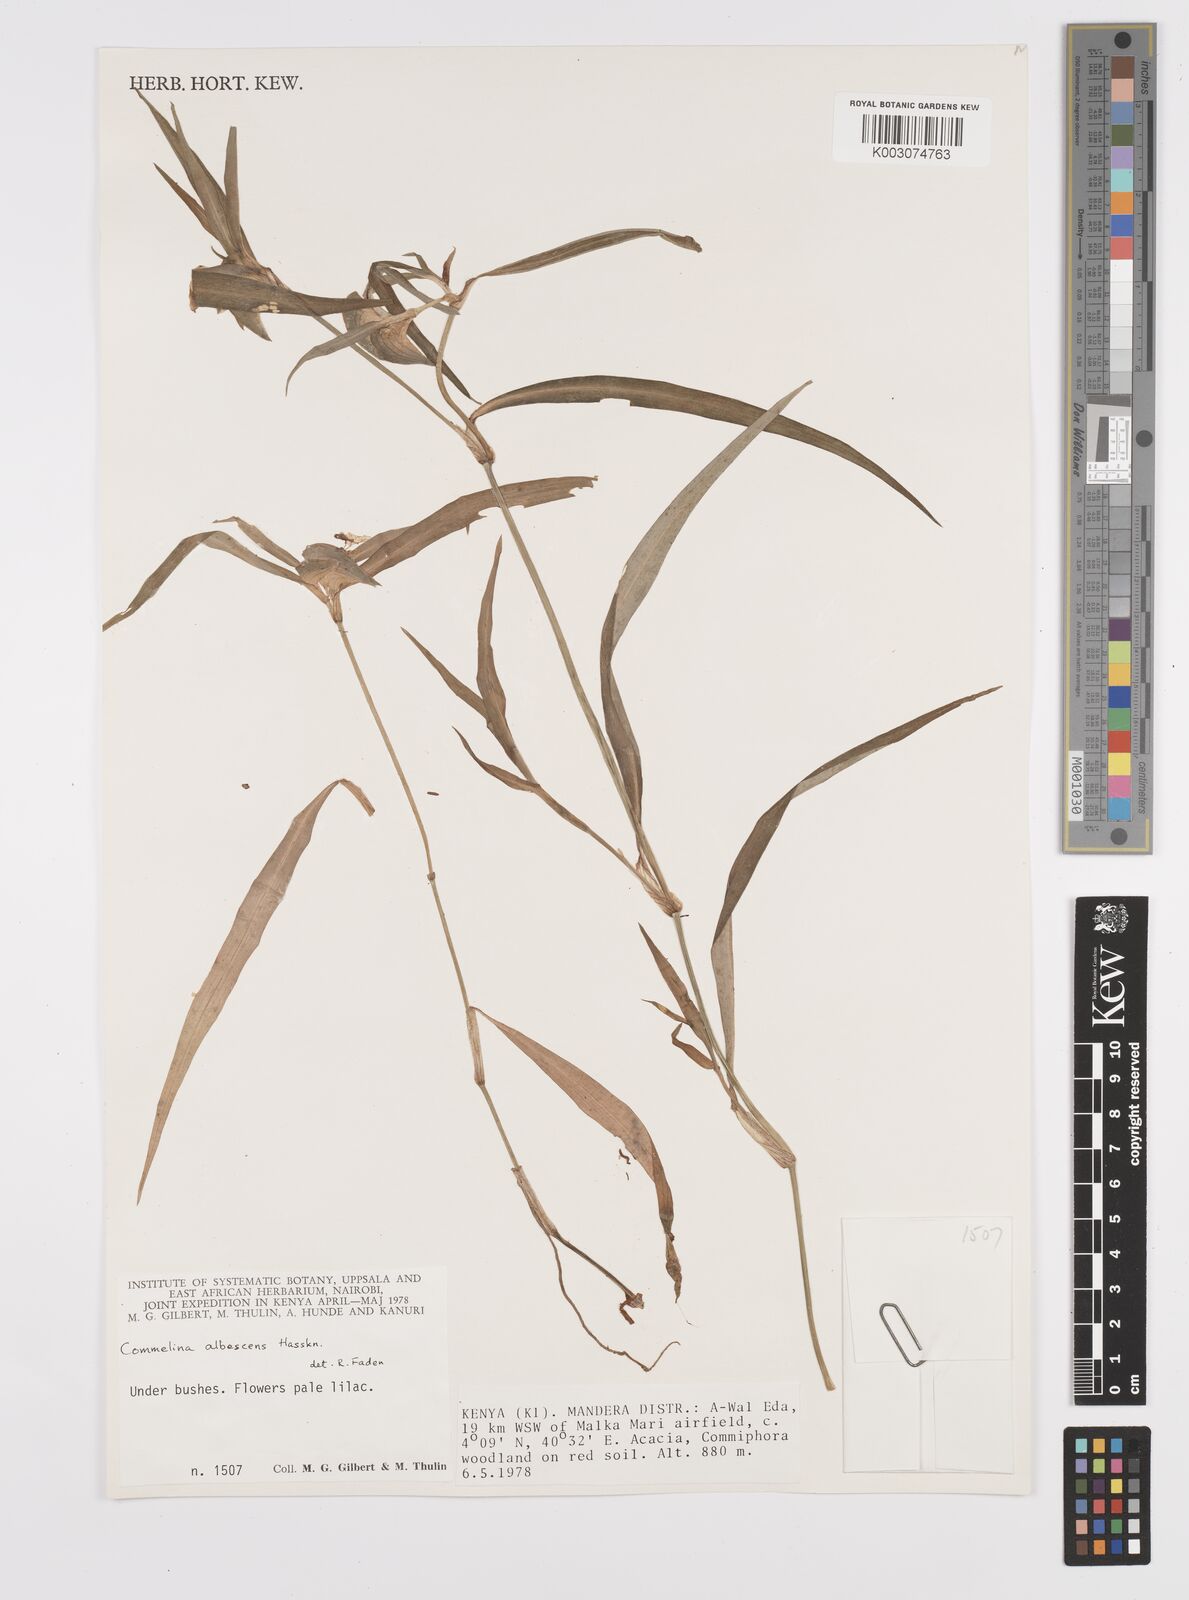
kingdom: Plantae
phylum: Tracheophyta
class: Liliopsida
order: Commelinales
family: Commelinaceae
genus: Commelina
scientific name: Commelina albescens
